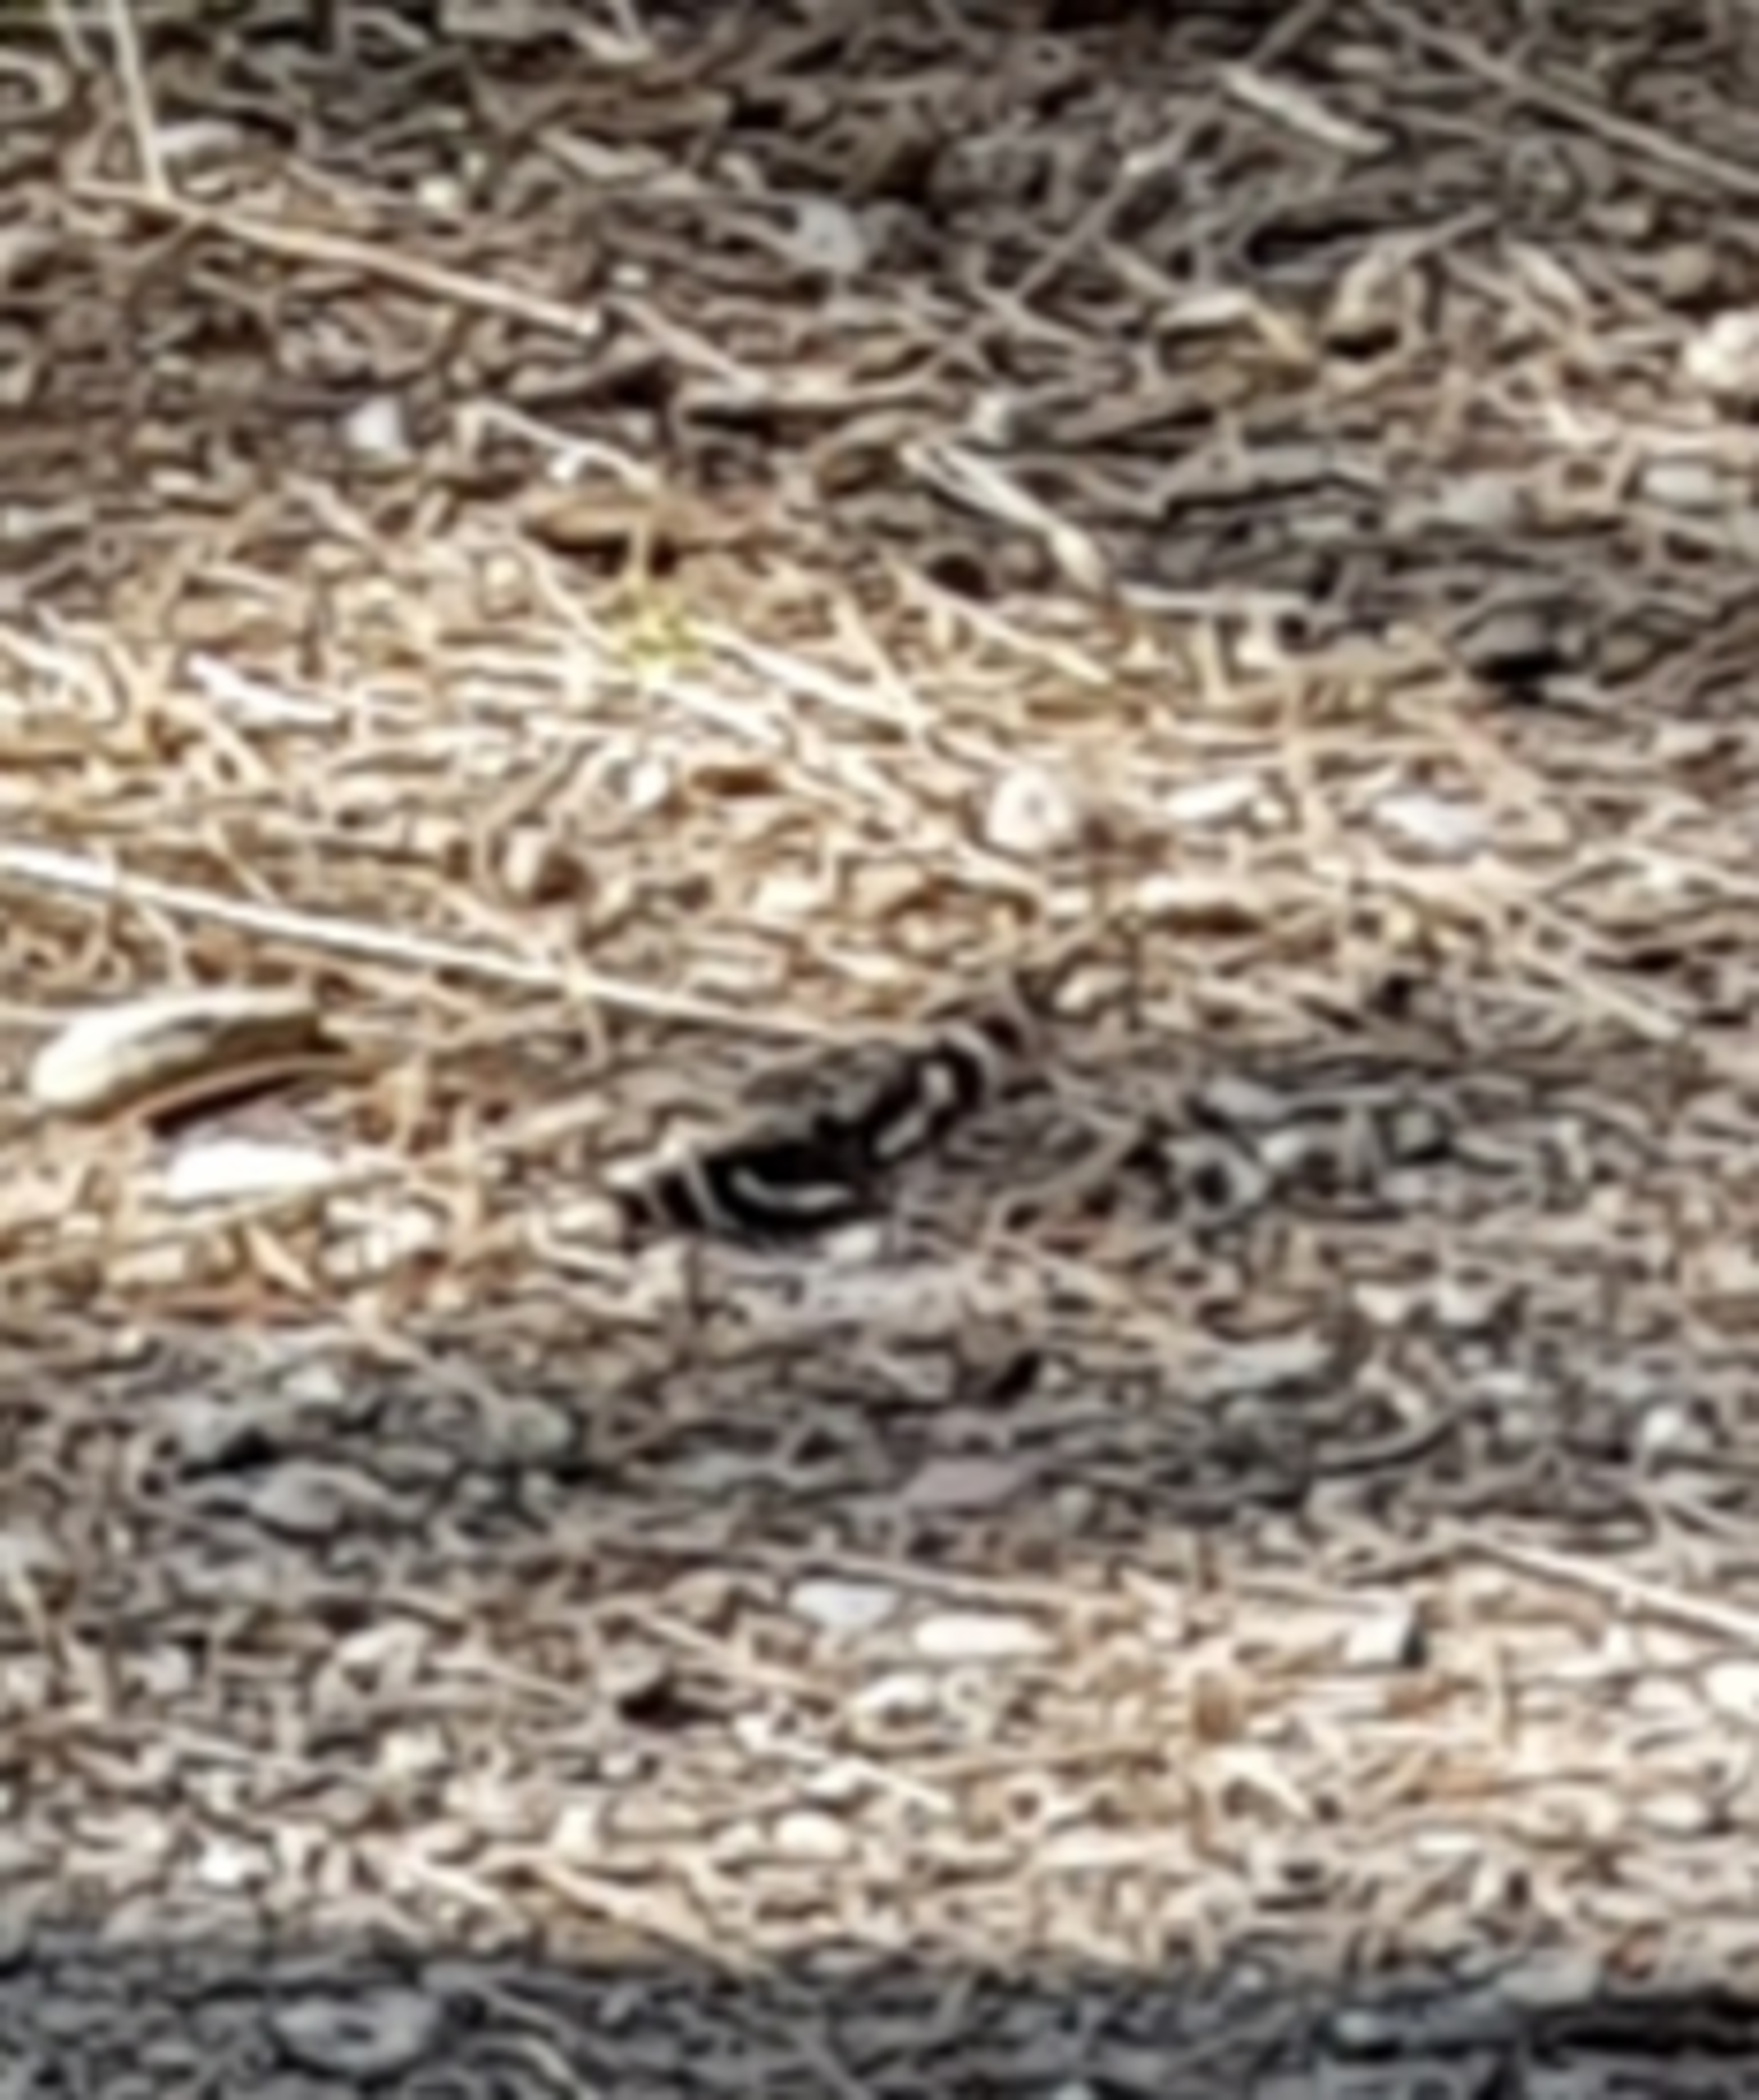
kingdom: Animalia
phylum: Arthropoda
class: Insecta
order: Lepidoptera
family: Nymphalidae
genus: Apatura
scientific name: Apatura iris
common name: Iris
